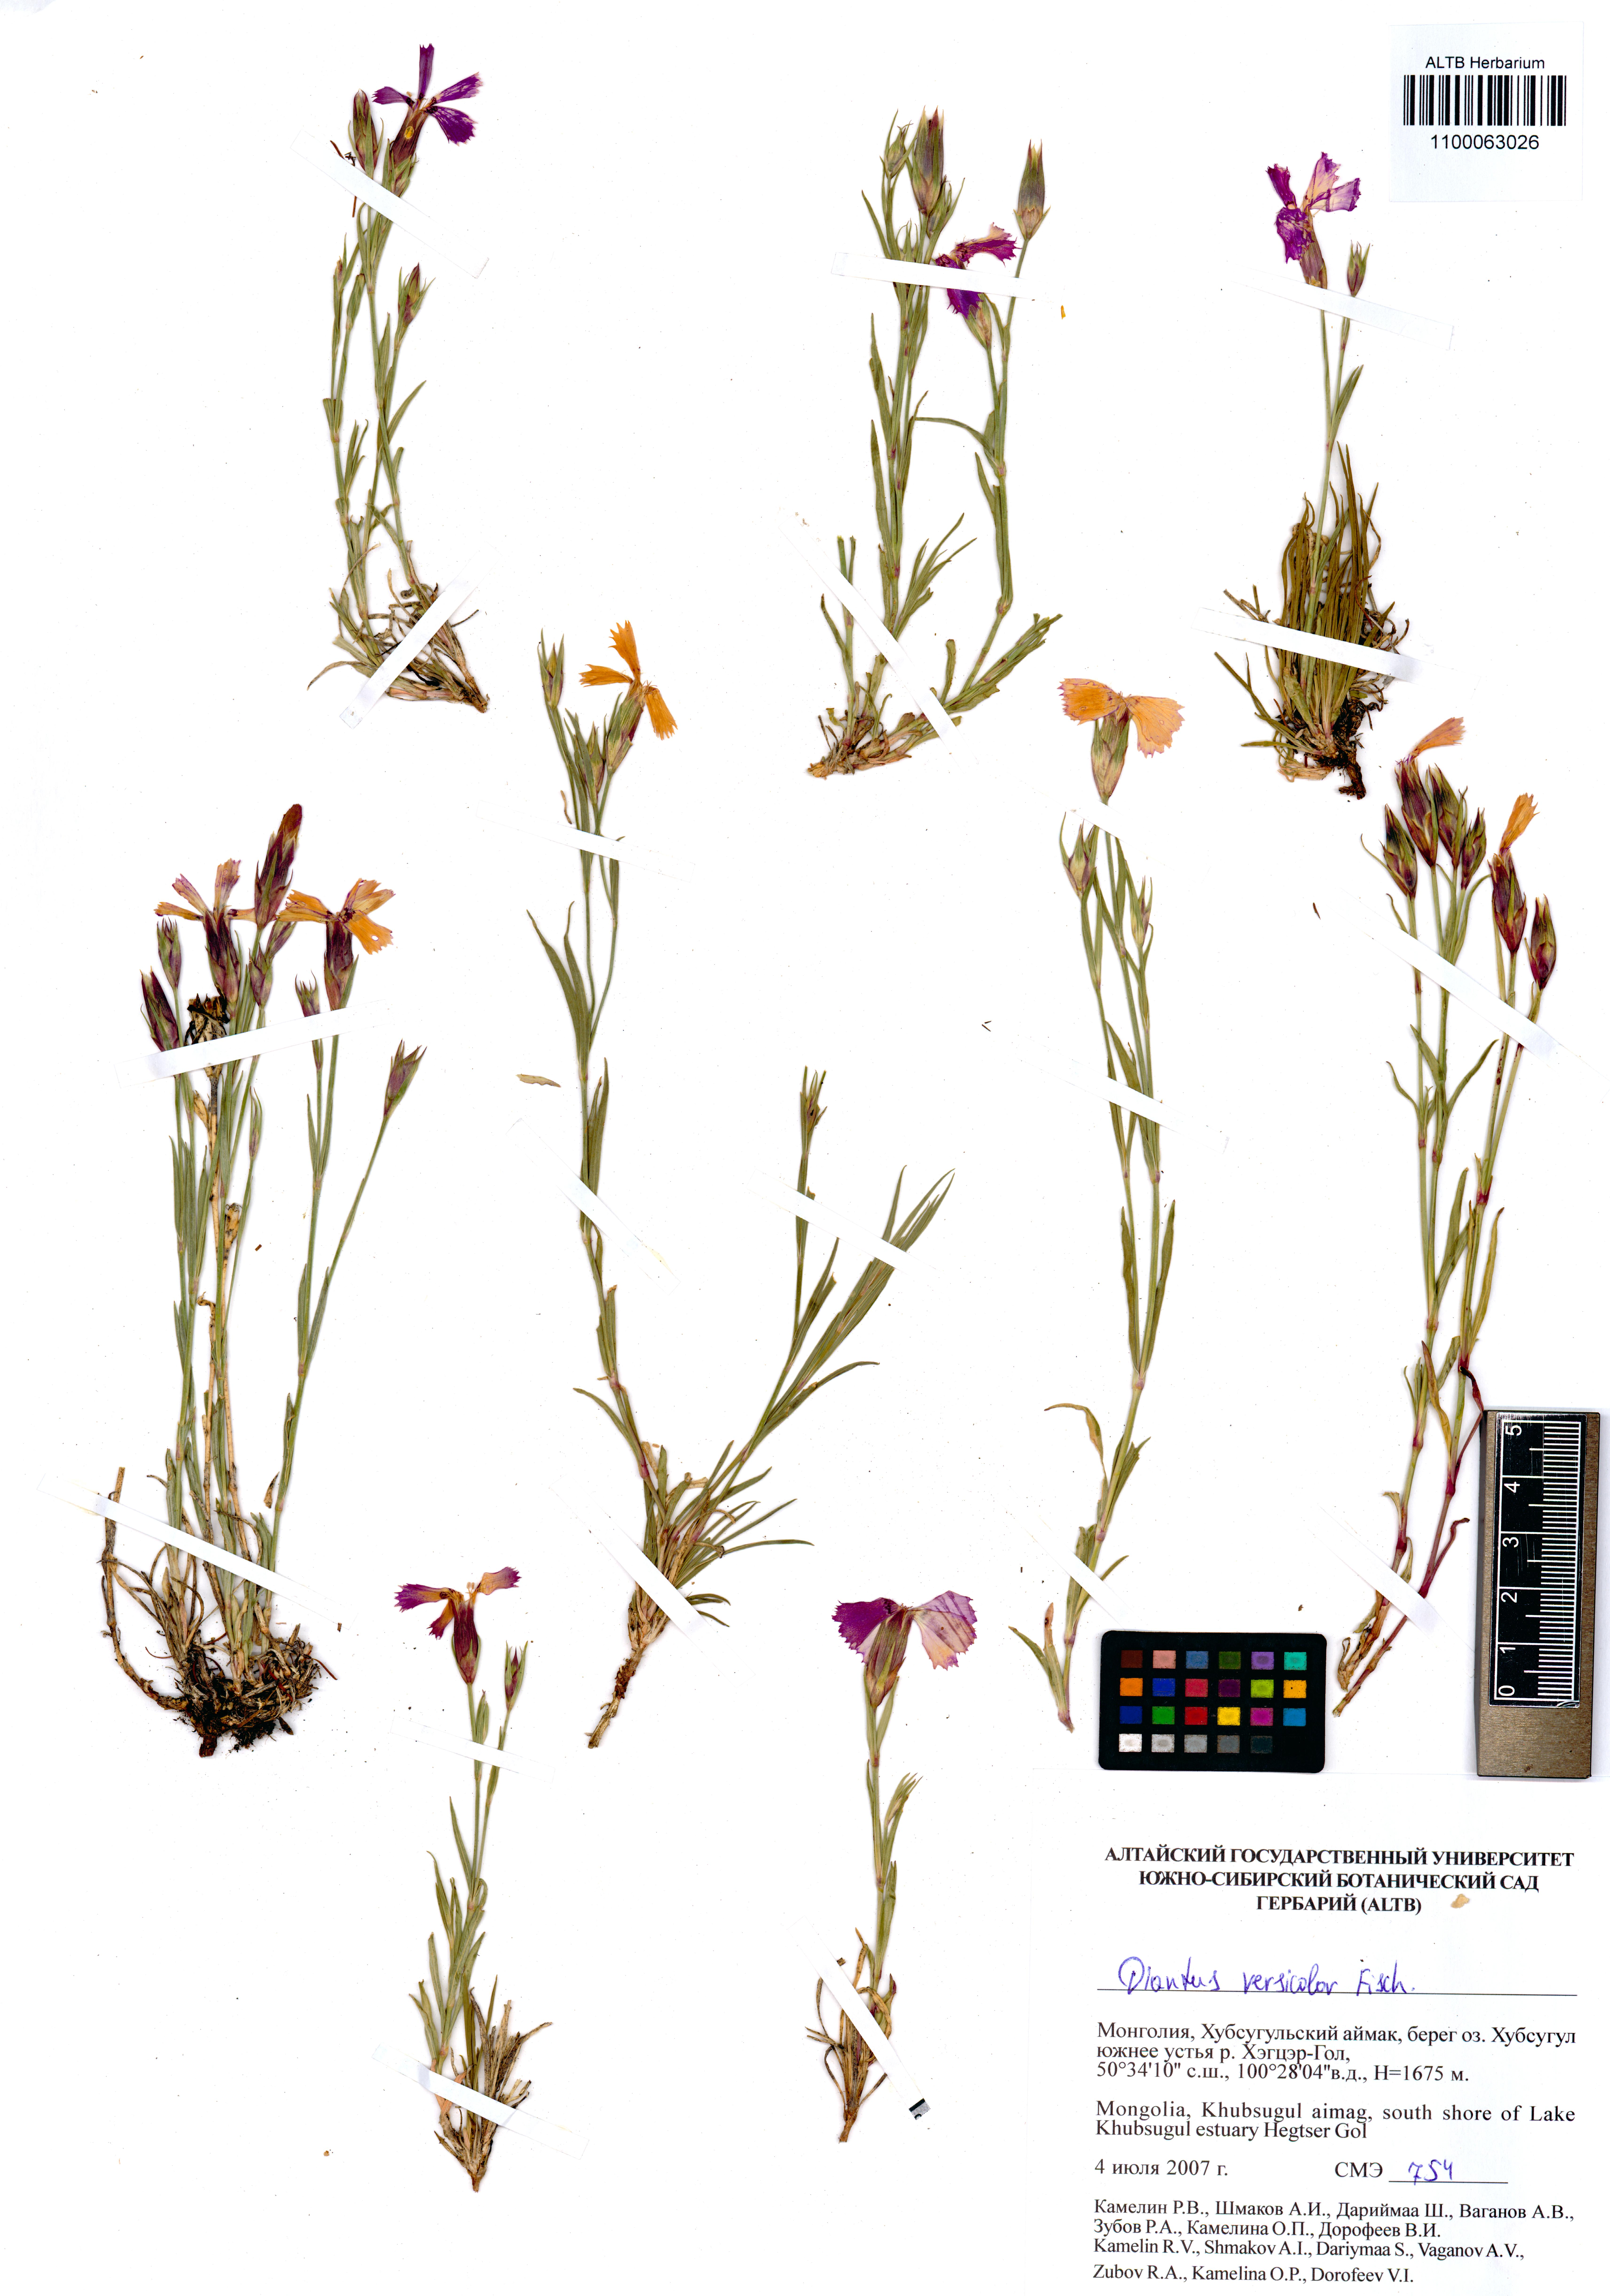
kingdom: Plantae
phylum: Tracheophyta
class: Magnoliopsida
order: Caryophyllales
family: Caryophyllaceae
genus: Dianthus
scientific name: Dianthus chinensis
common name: Rainbow pink
